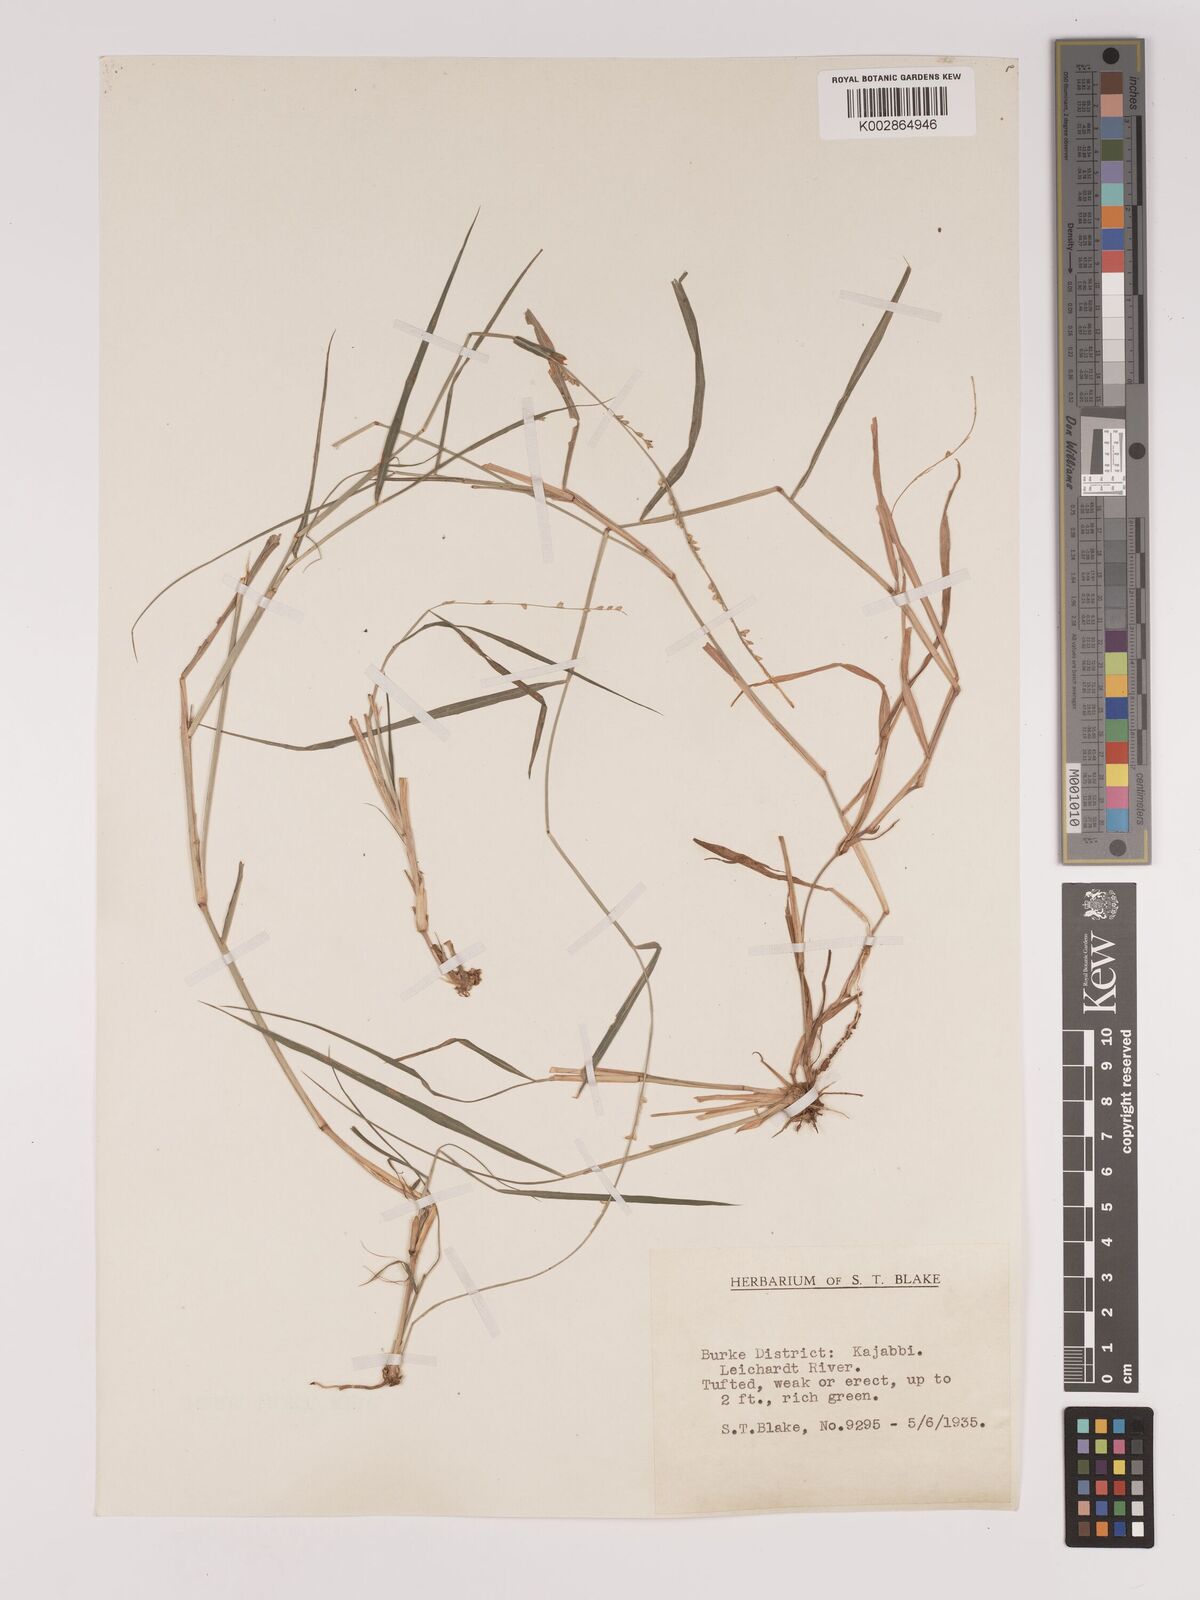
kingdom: Plantae
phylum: Tracheophyta
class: Liliopsida
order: Poales
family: Poaceae
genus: Setaria
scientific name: Setaria
